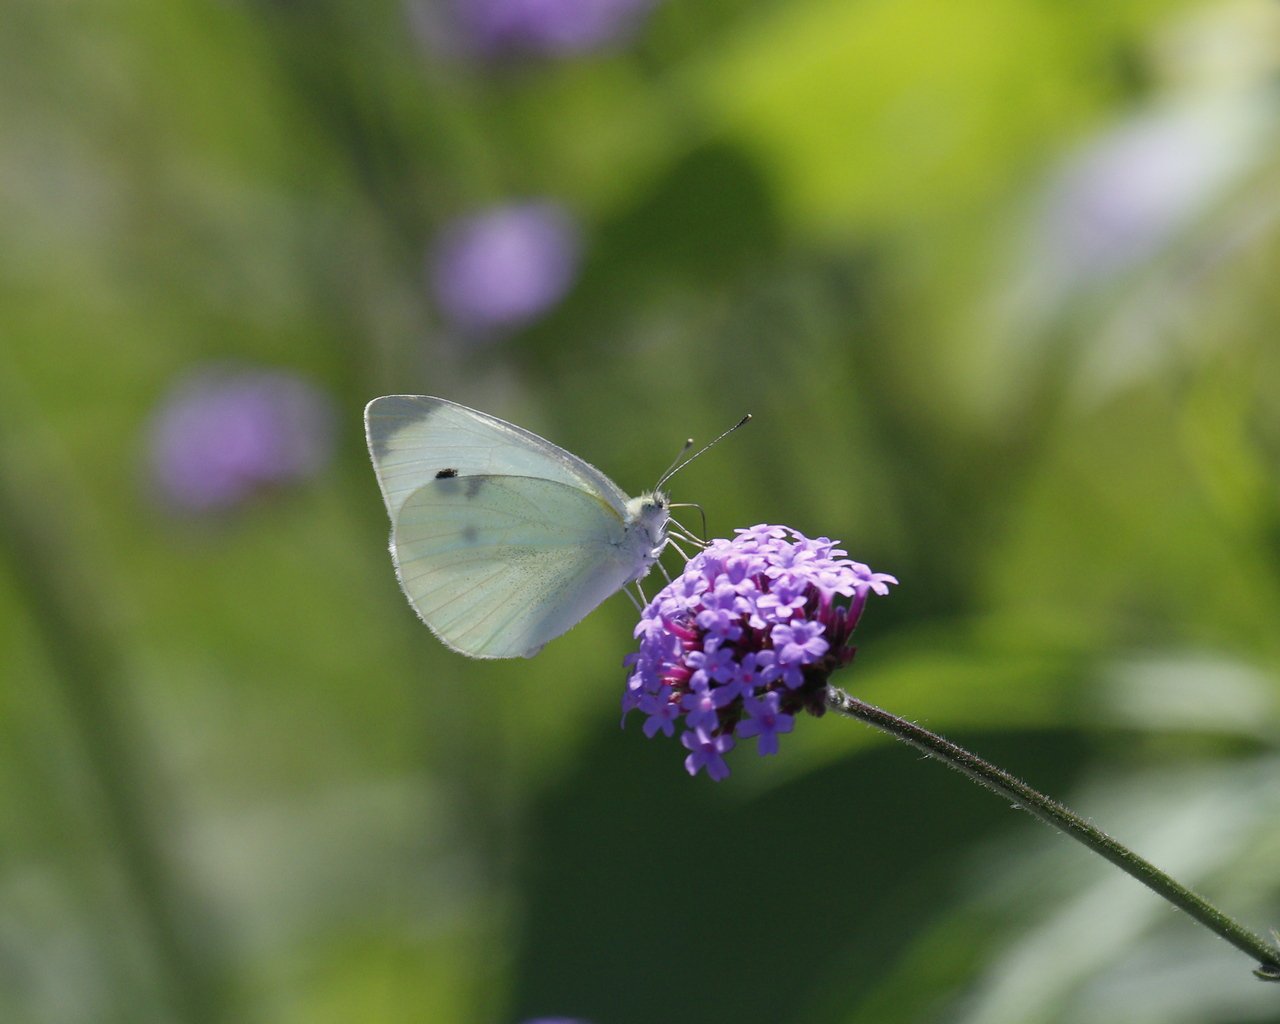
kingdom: Animalia
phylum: Arthropoda
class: Insecta
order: Lepidoptera
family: Pieridae
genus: Pieris
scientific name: Pieris rapae
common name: Cabbage White
